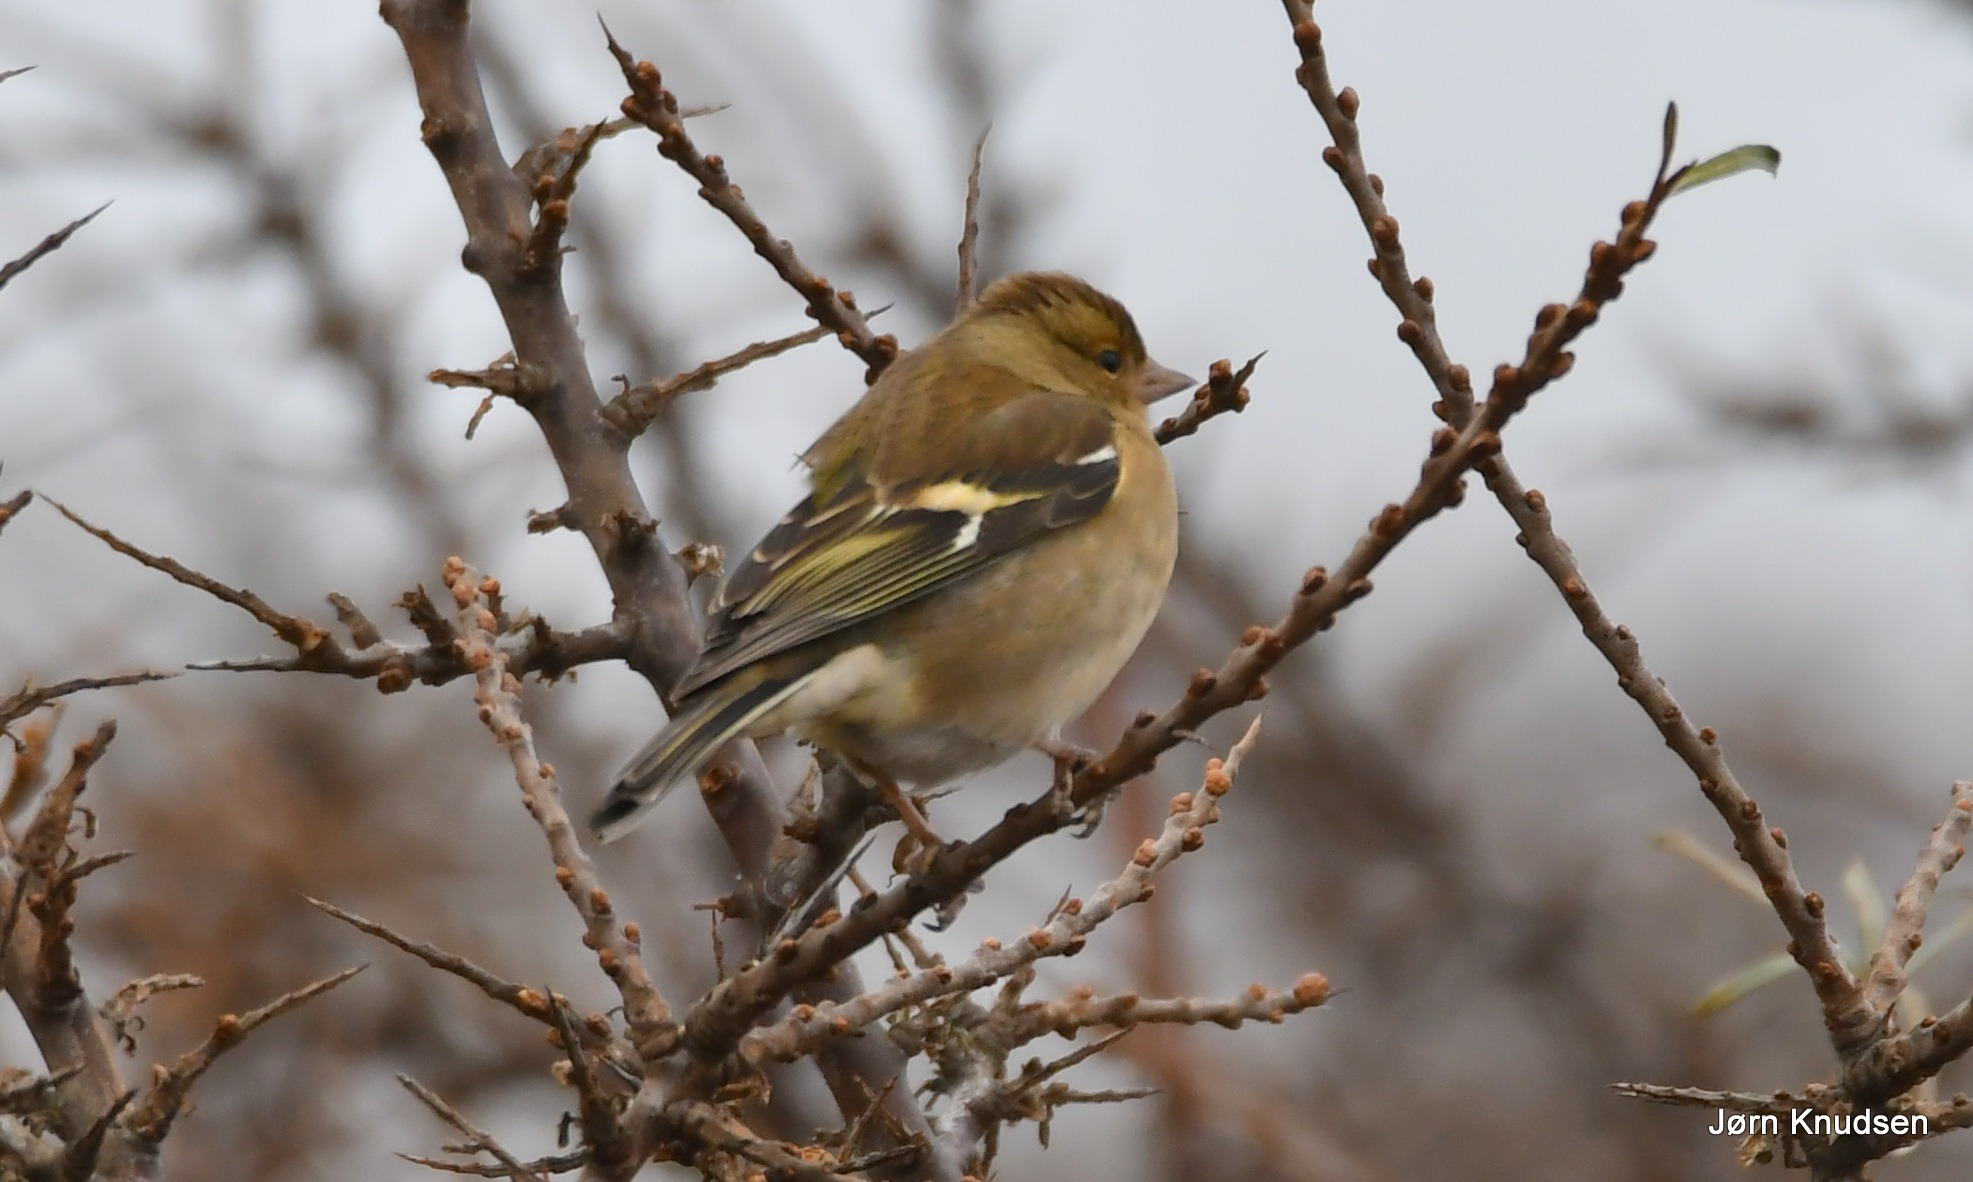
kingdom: Animalia
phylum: Chordata
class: Aves
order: Passeriformes
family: Fringillidae
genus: Fringilla
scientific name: Fringilla coelebs
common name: Bogfinke
